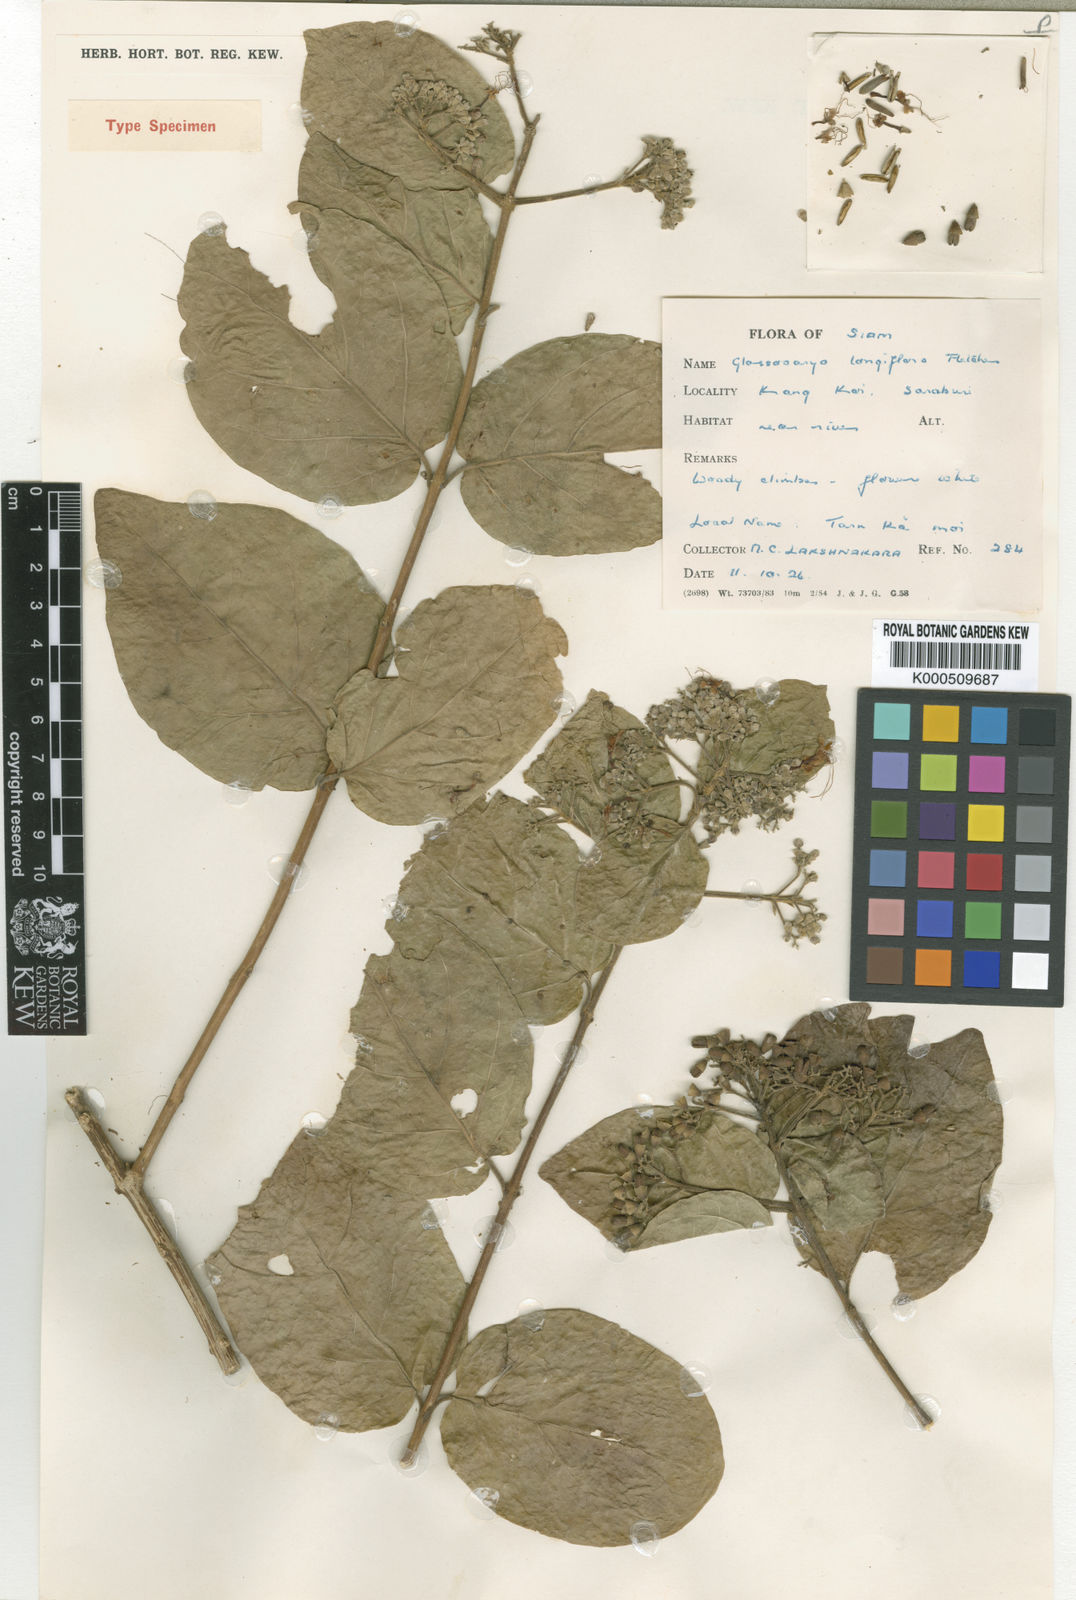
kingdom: Plantae
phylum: Tracheophyta
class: Magnoliopsida
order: Lamiales
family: Lamiaceae
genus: Glossocarya
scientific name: Glossocarya longiflora
